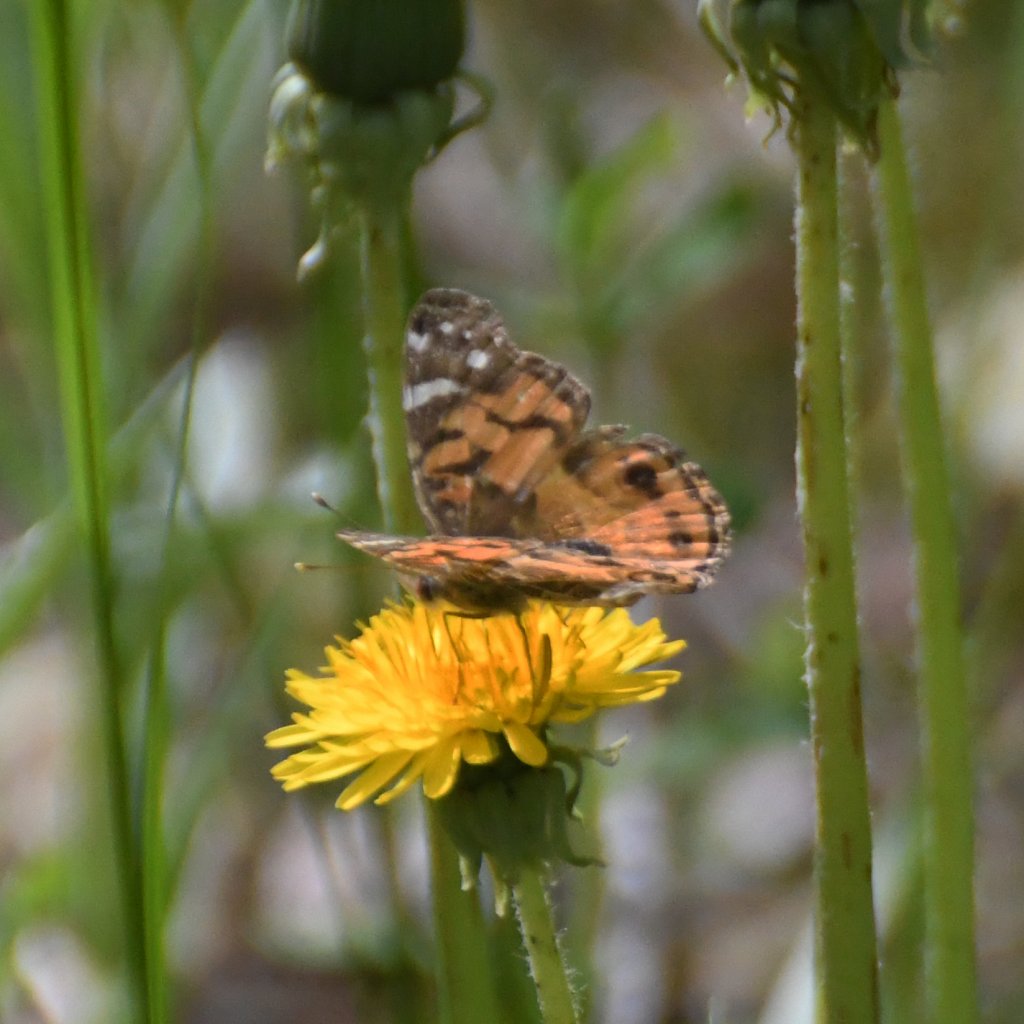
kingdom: Animalia
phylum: Arthropoda
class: Insecta
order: Lepidoptera
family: Nymphalidae
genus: Vanessa
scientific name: Vanessa virginiensis
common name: American Lady
